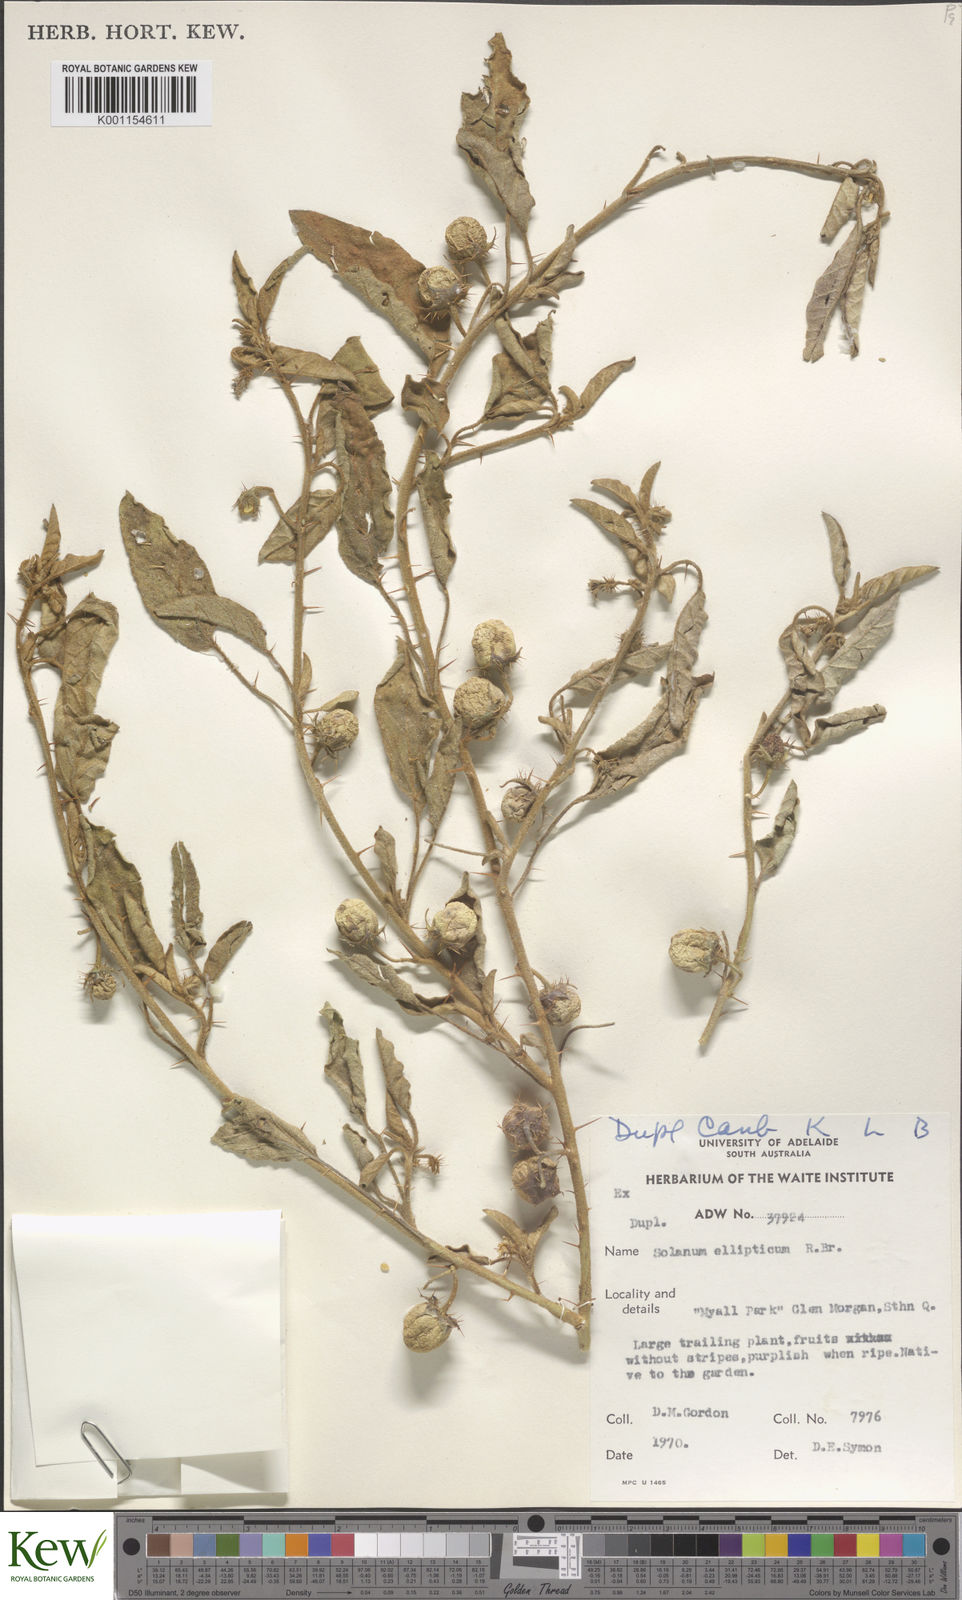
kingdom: Plantae
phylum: Tracheophyta
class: Magnoliopsida
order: Solanales
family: Solanaceae
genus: Solanum
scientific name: Solanum ellipticum
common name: Potato-bush
